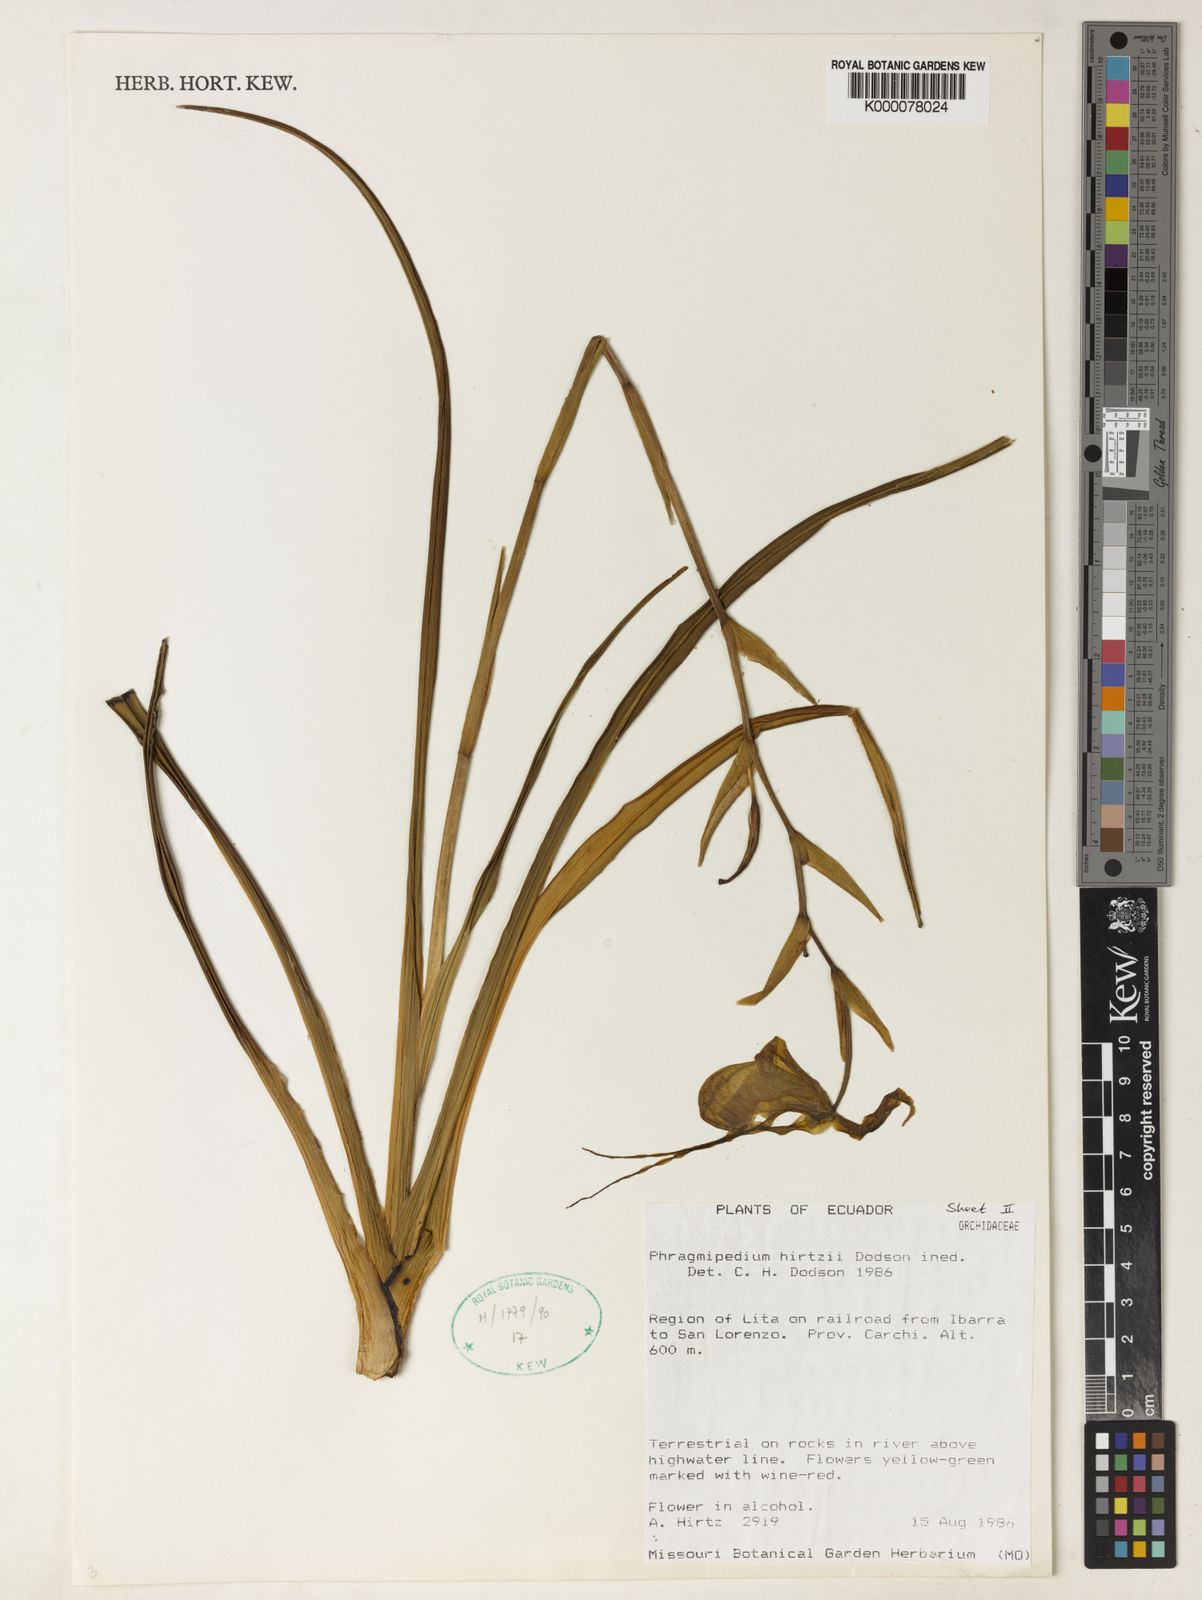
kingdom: Plantae
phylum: Tracheophyta
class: Liliopsida
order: Asparagales
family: Orchidaceae
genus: Phragmipedium
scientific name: Phragmipedium hirtzii
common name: Hirtz' phragmipedium
